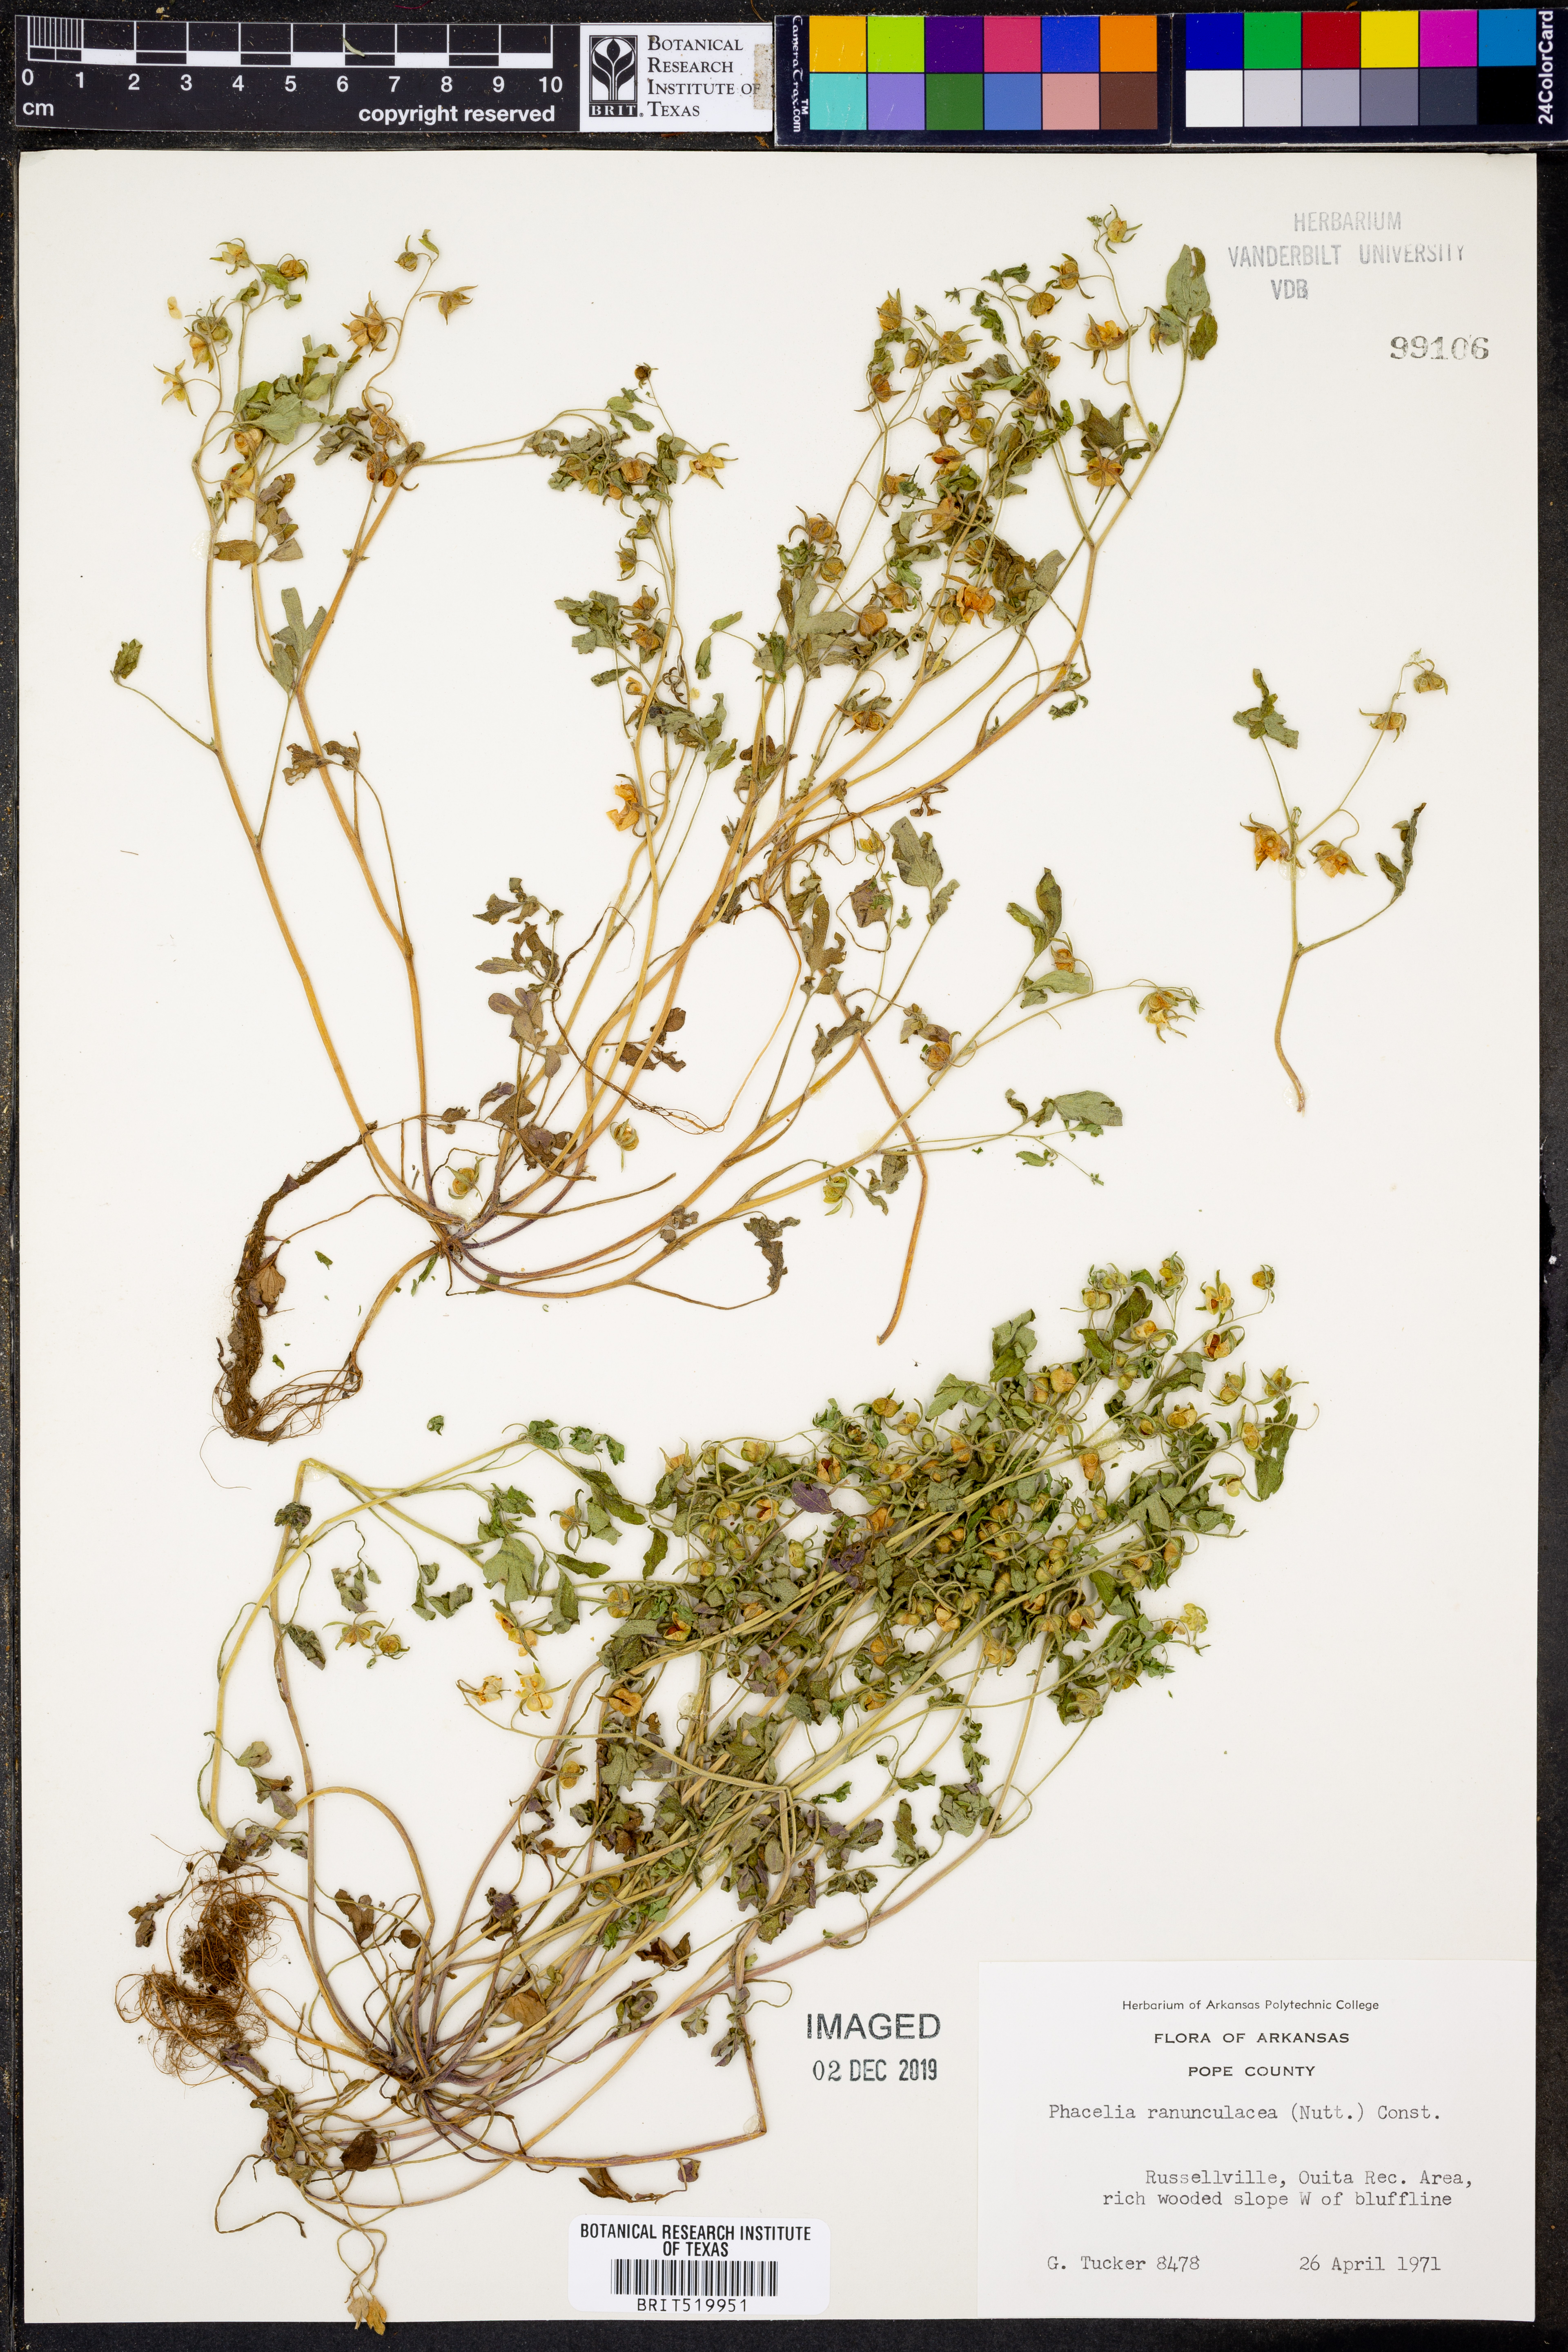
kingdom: Plantae
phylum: Tracheophyta
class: Magnoliopsida
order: Boraginales
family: Hydrophyllaceae
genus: Phacelia
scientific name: Phacelia ranunculacea
